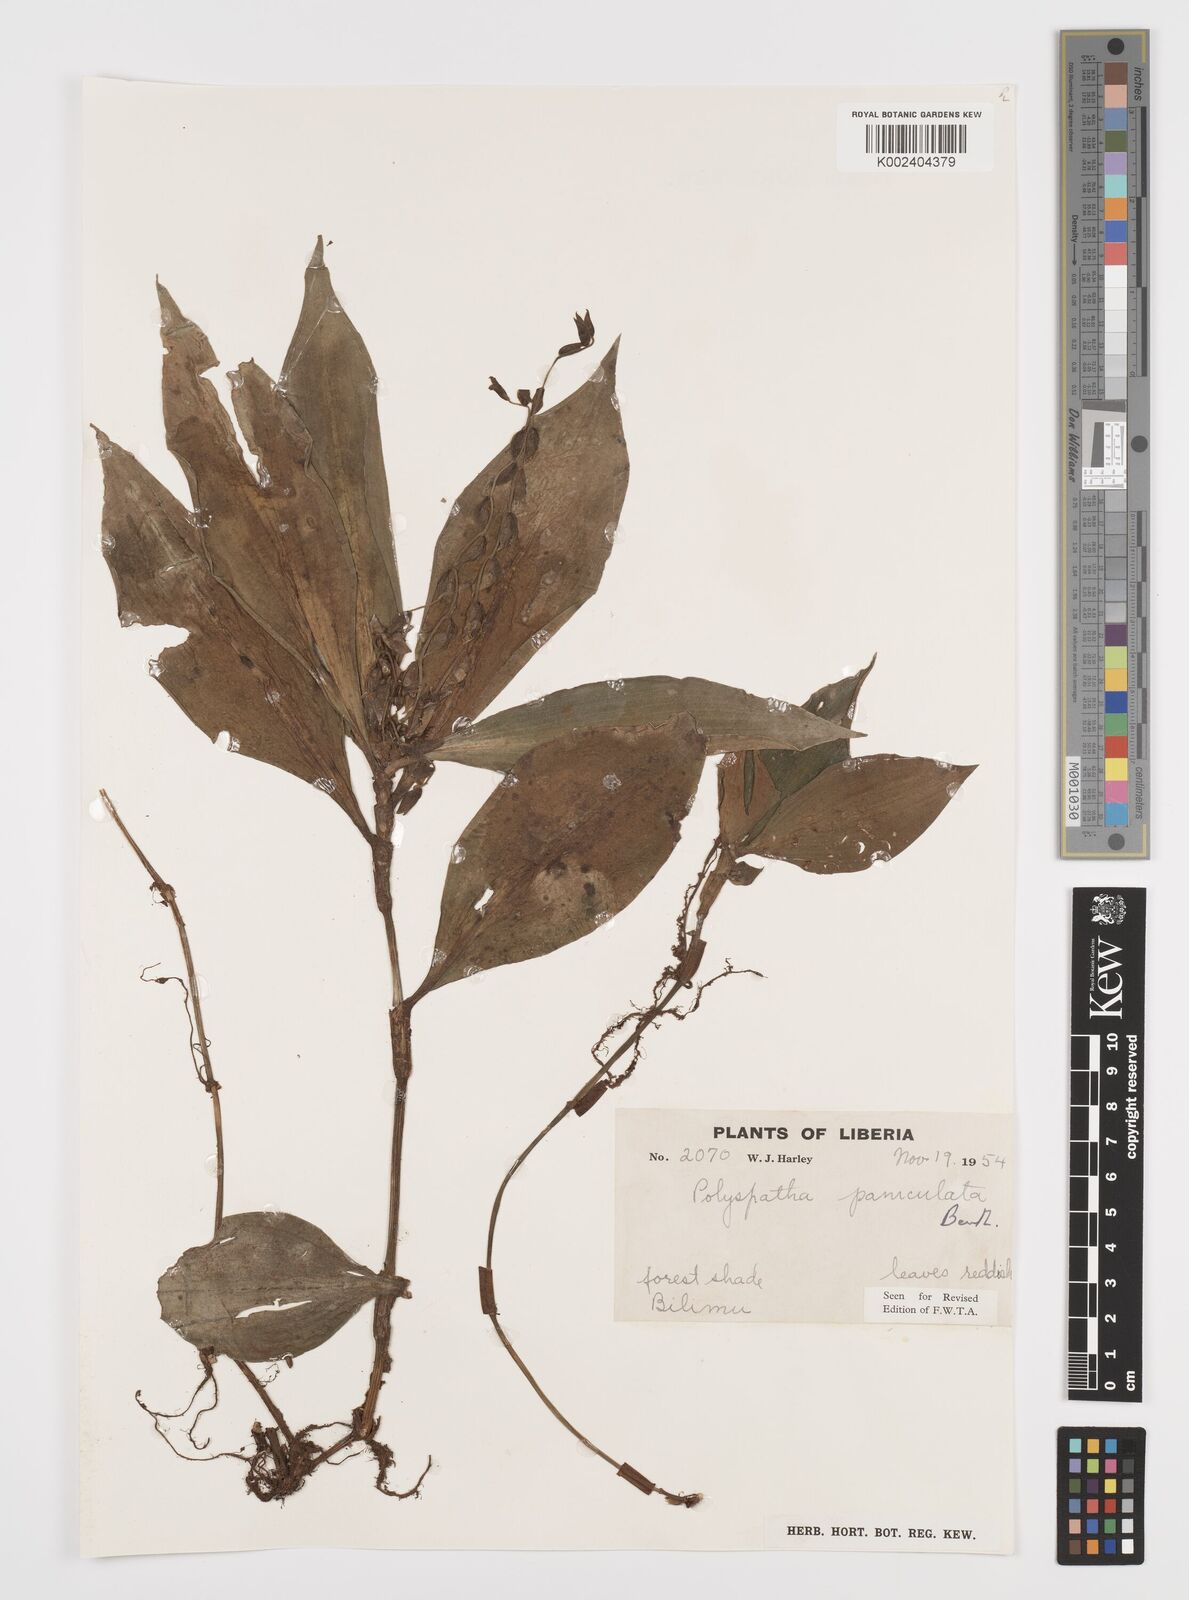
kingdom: Plantae
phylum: Tracheophyta
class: Liliopsida
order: Commelinales
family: Commelinaceae
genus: Polyspatha
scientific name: Polyspatha paniculata
